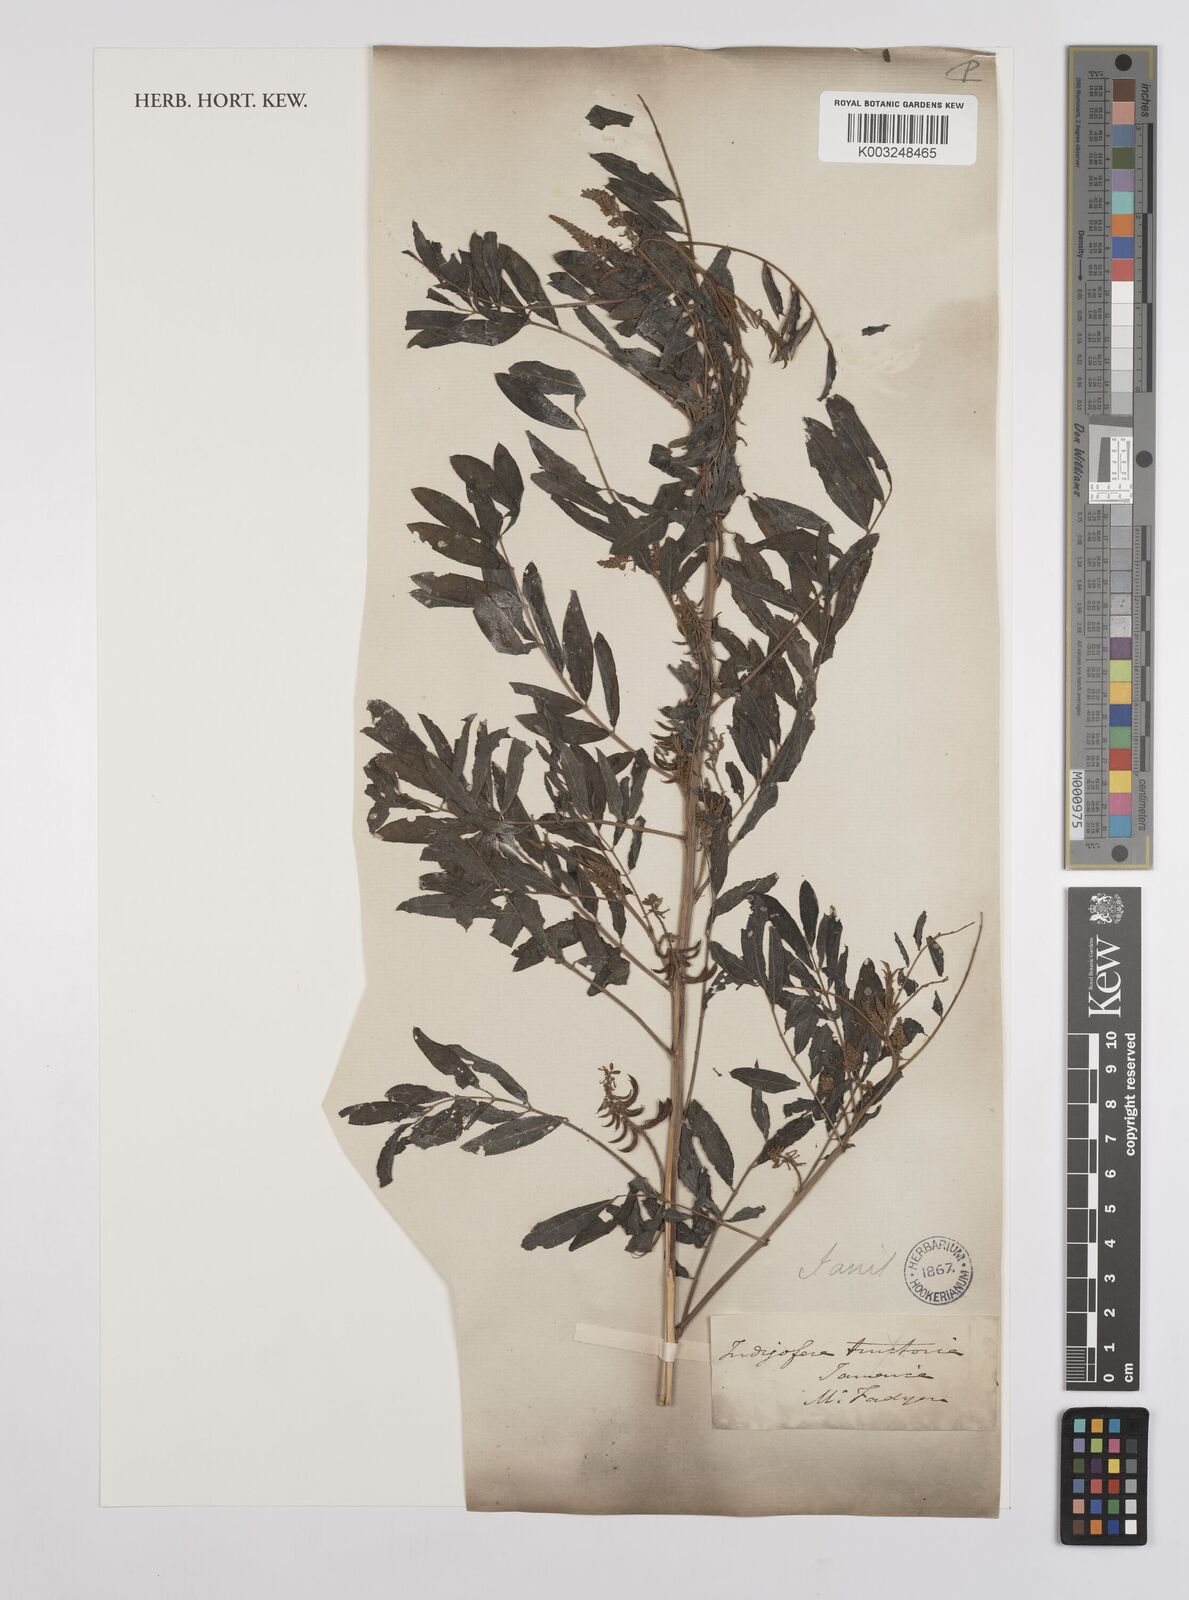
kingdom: Plantae
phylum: Tracheophyta
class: Magnoliopsida
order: Fabales
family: Fabaceae
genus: Indigofera
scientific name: Indigofera suffruticosa
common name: Anil de pasto
